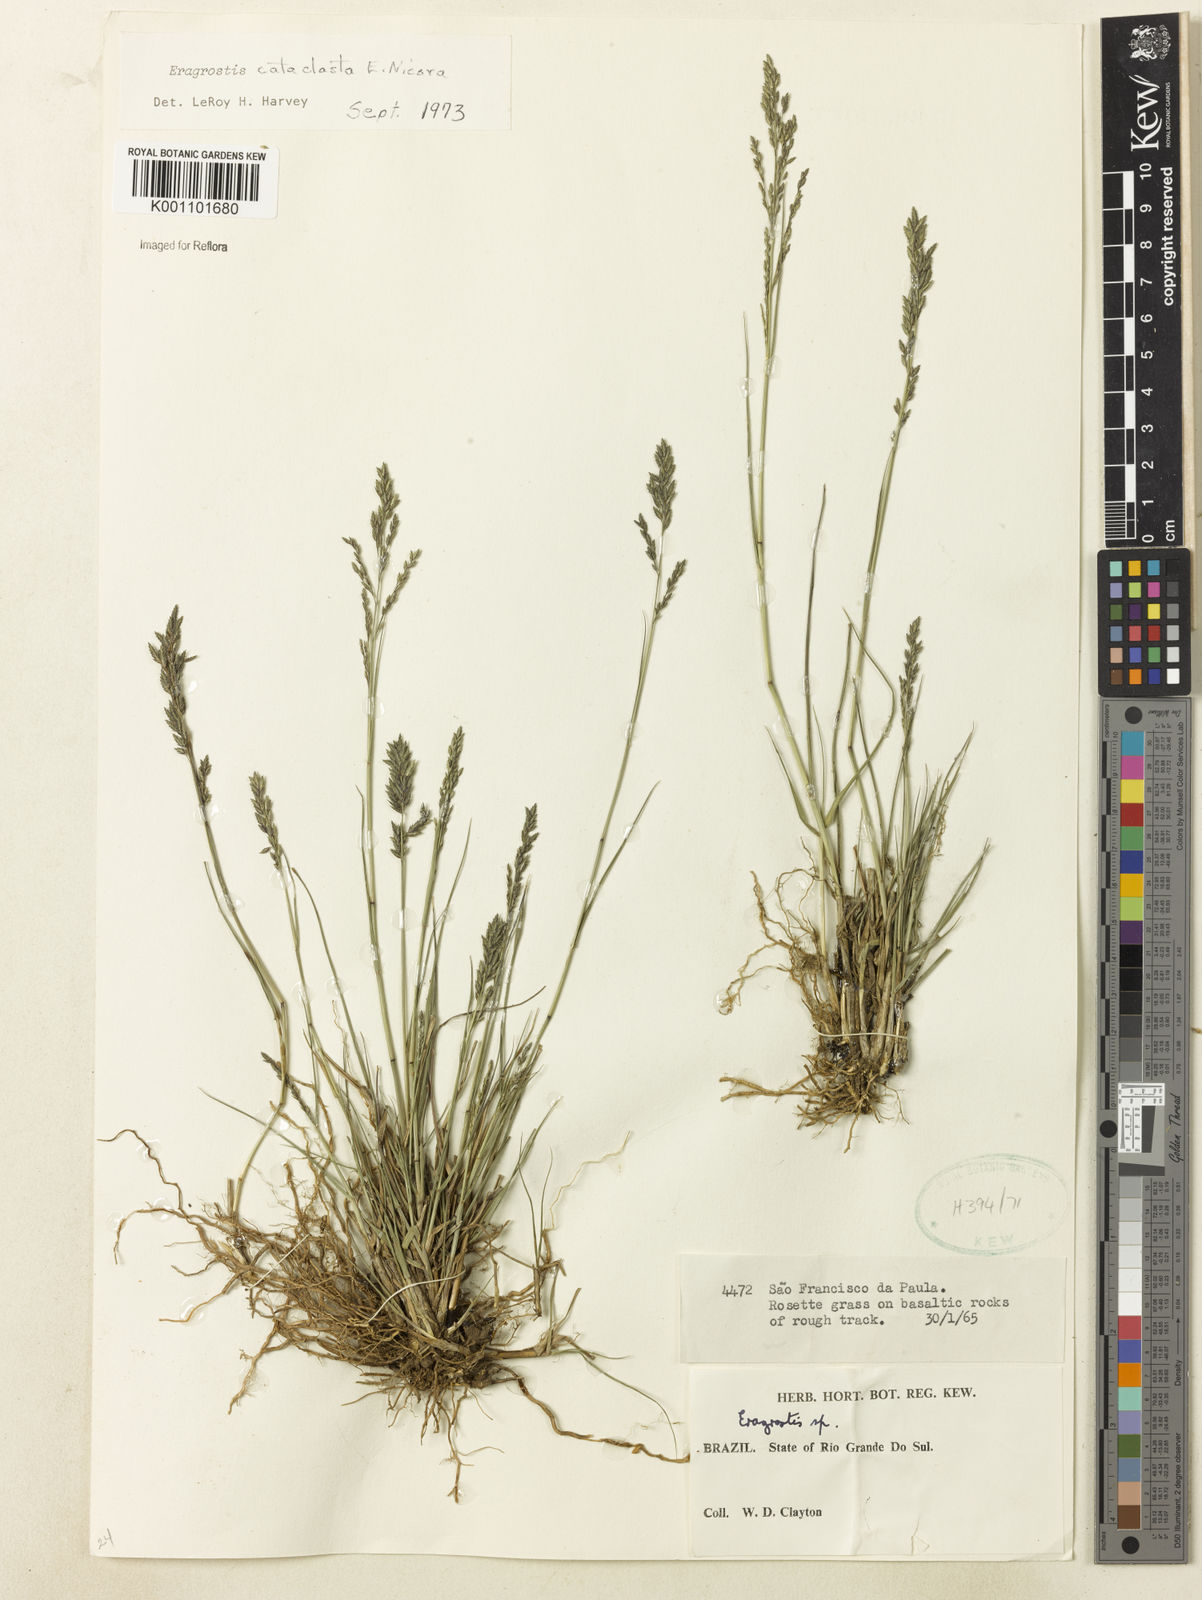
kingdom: Plantae
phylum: Tracheophyta
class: Liliopsida
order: Poales
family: Poaceae
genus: Eragrostis
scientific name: Eragrostis cataclasta
